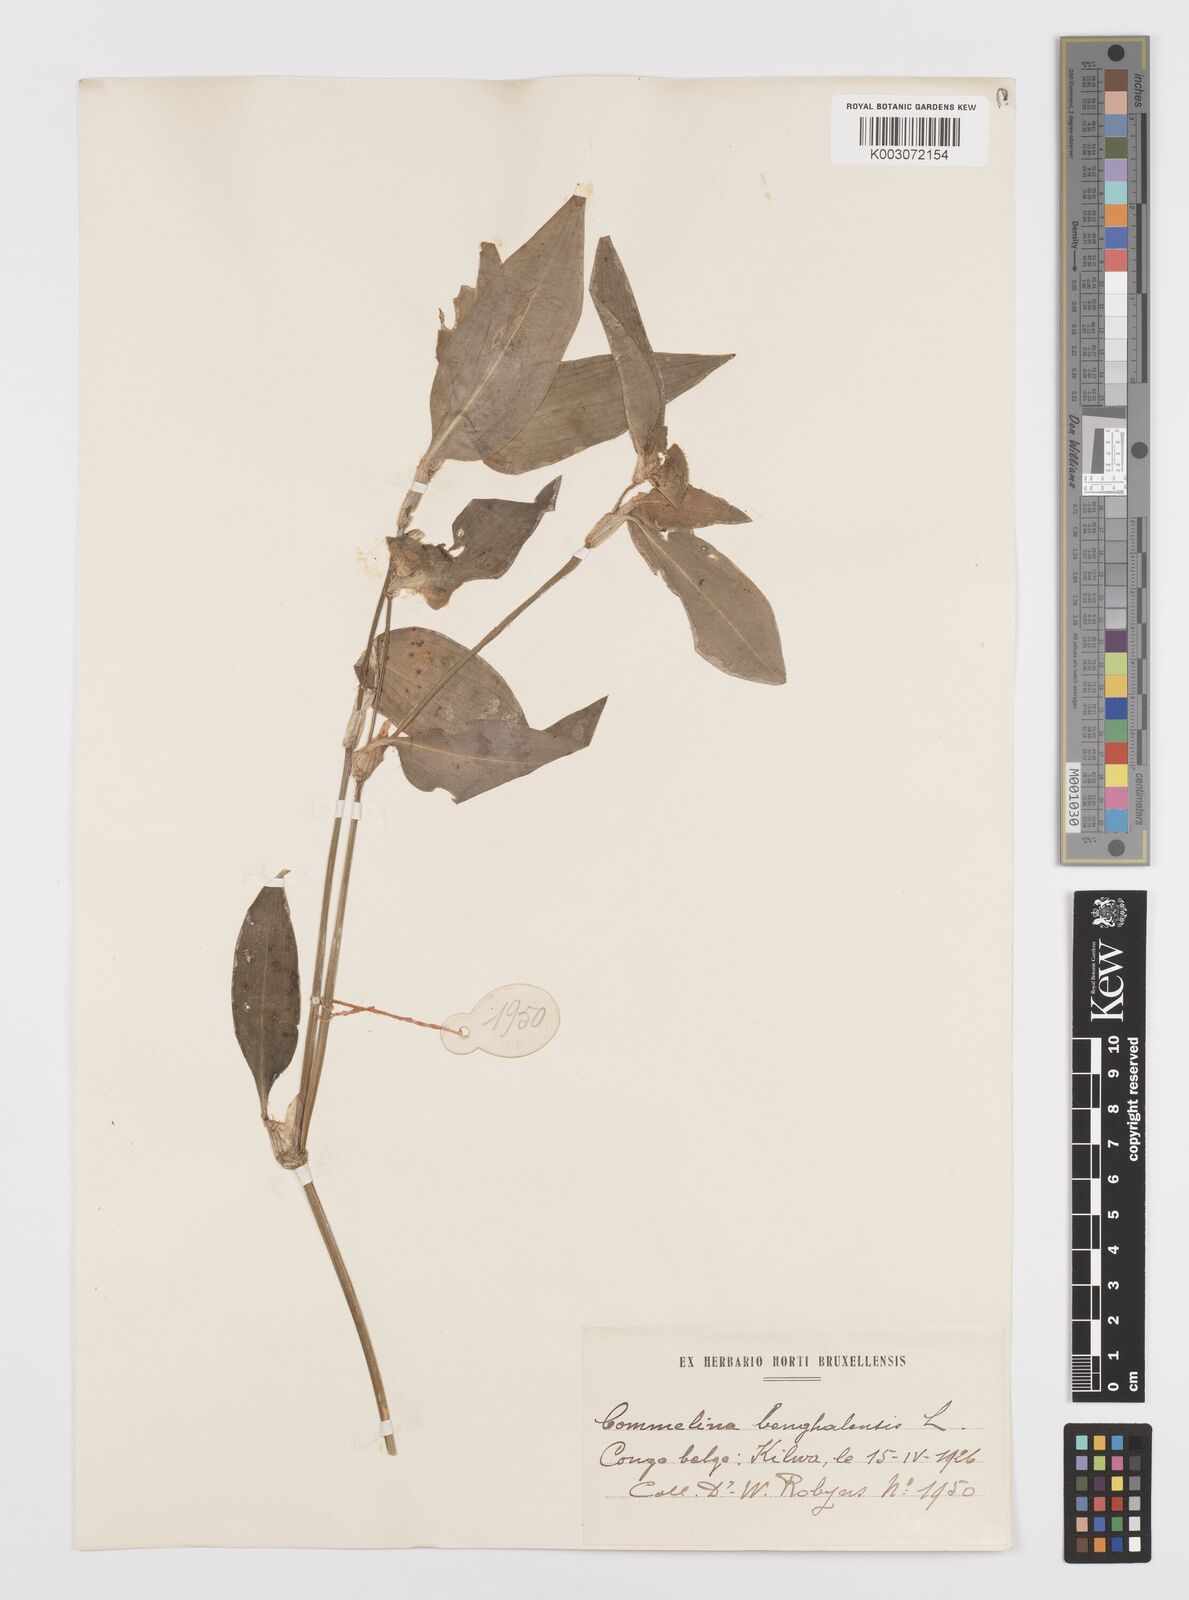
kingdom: Plantae
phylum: Tracheophyta
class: Liliopsida
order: Commelinales
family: Commelinaceae
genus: Commelina
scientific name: Commelina benghalensis
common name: Jio
